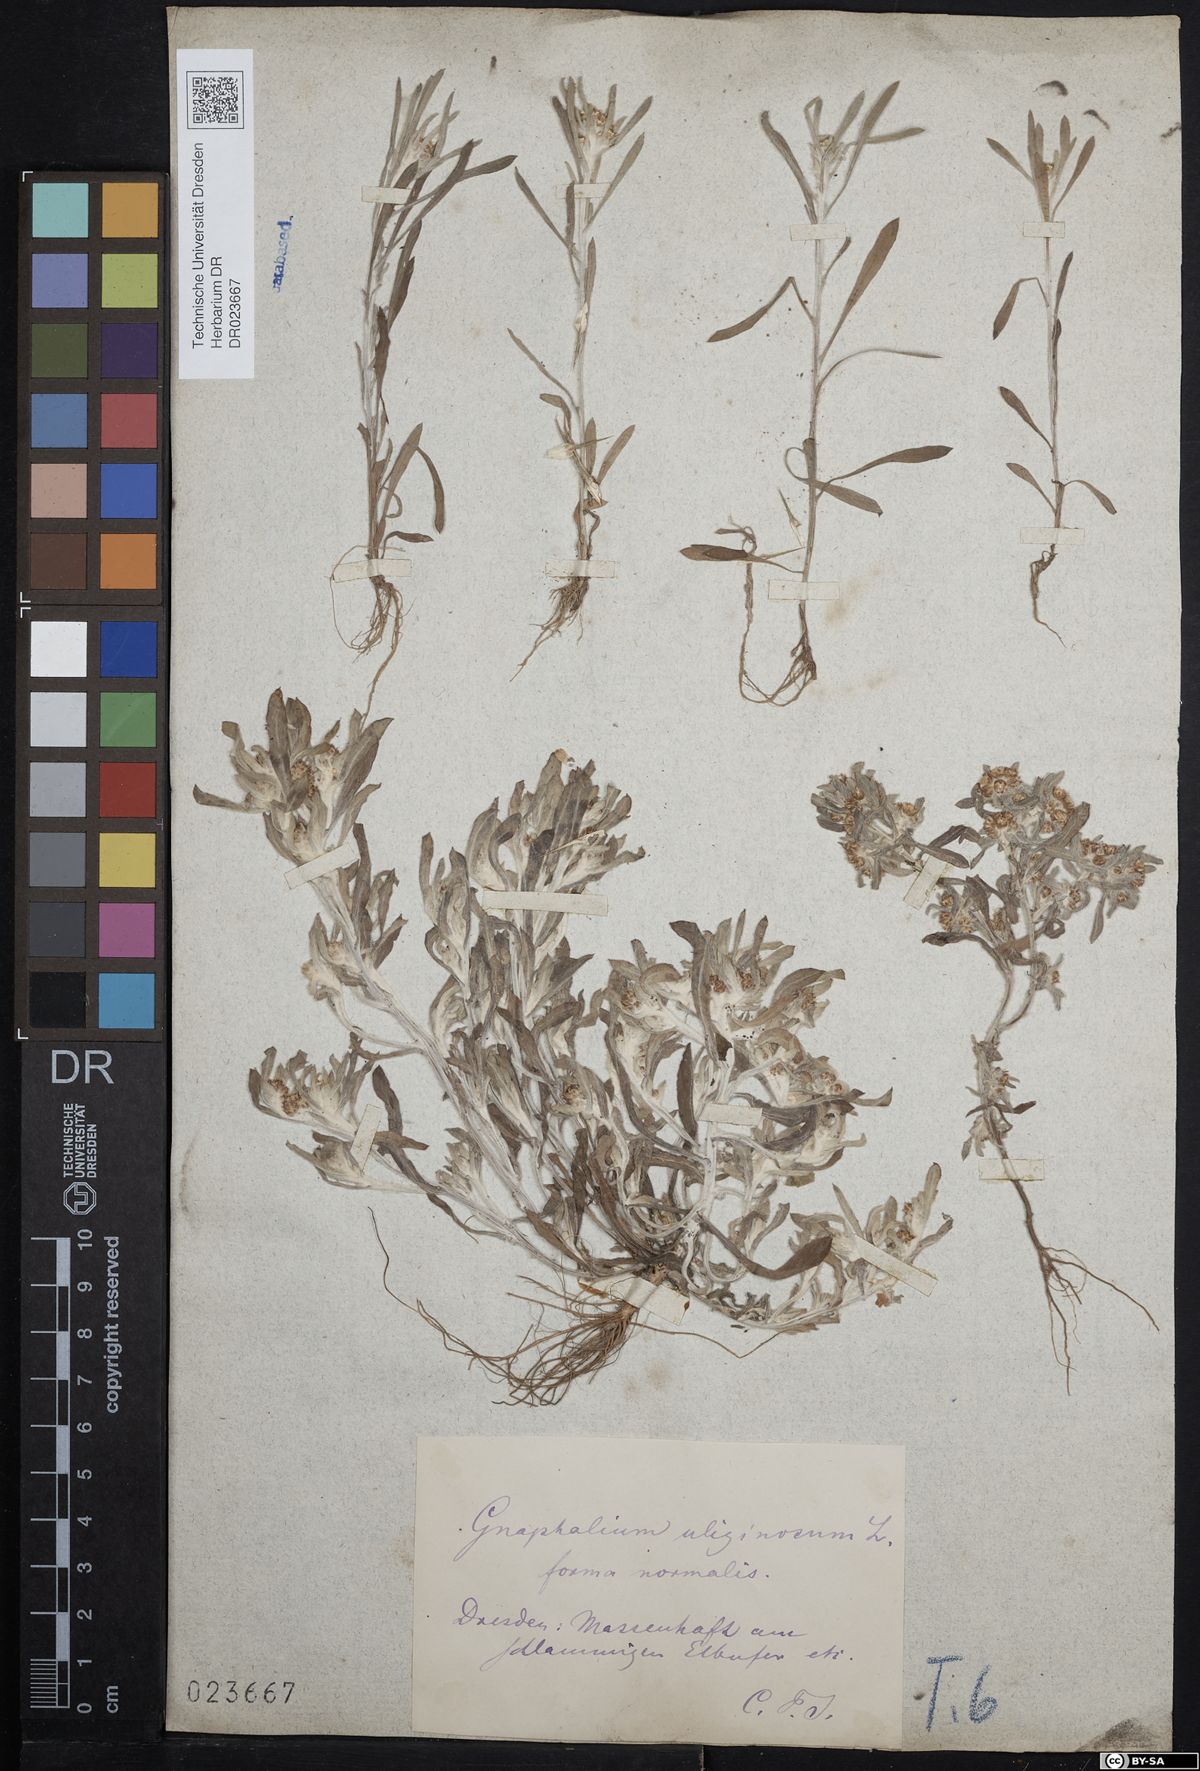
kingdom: Plantae
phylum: Tracheophyta
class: Magnoliopsida
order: Asterales
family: Asteraceae
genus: Gnaphalium
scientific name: Gnaphalium uliginosum
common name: Marsh cudweed
